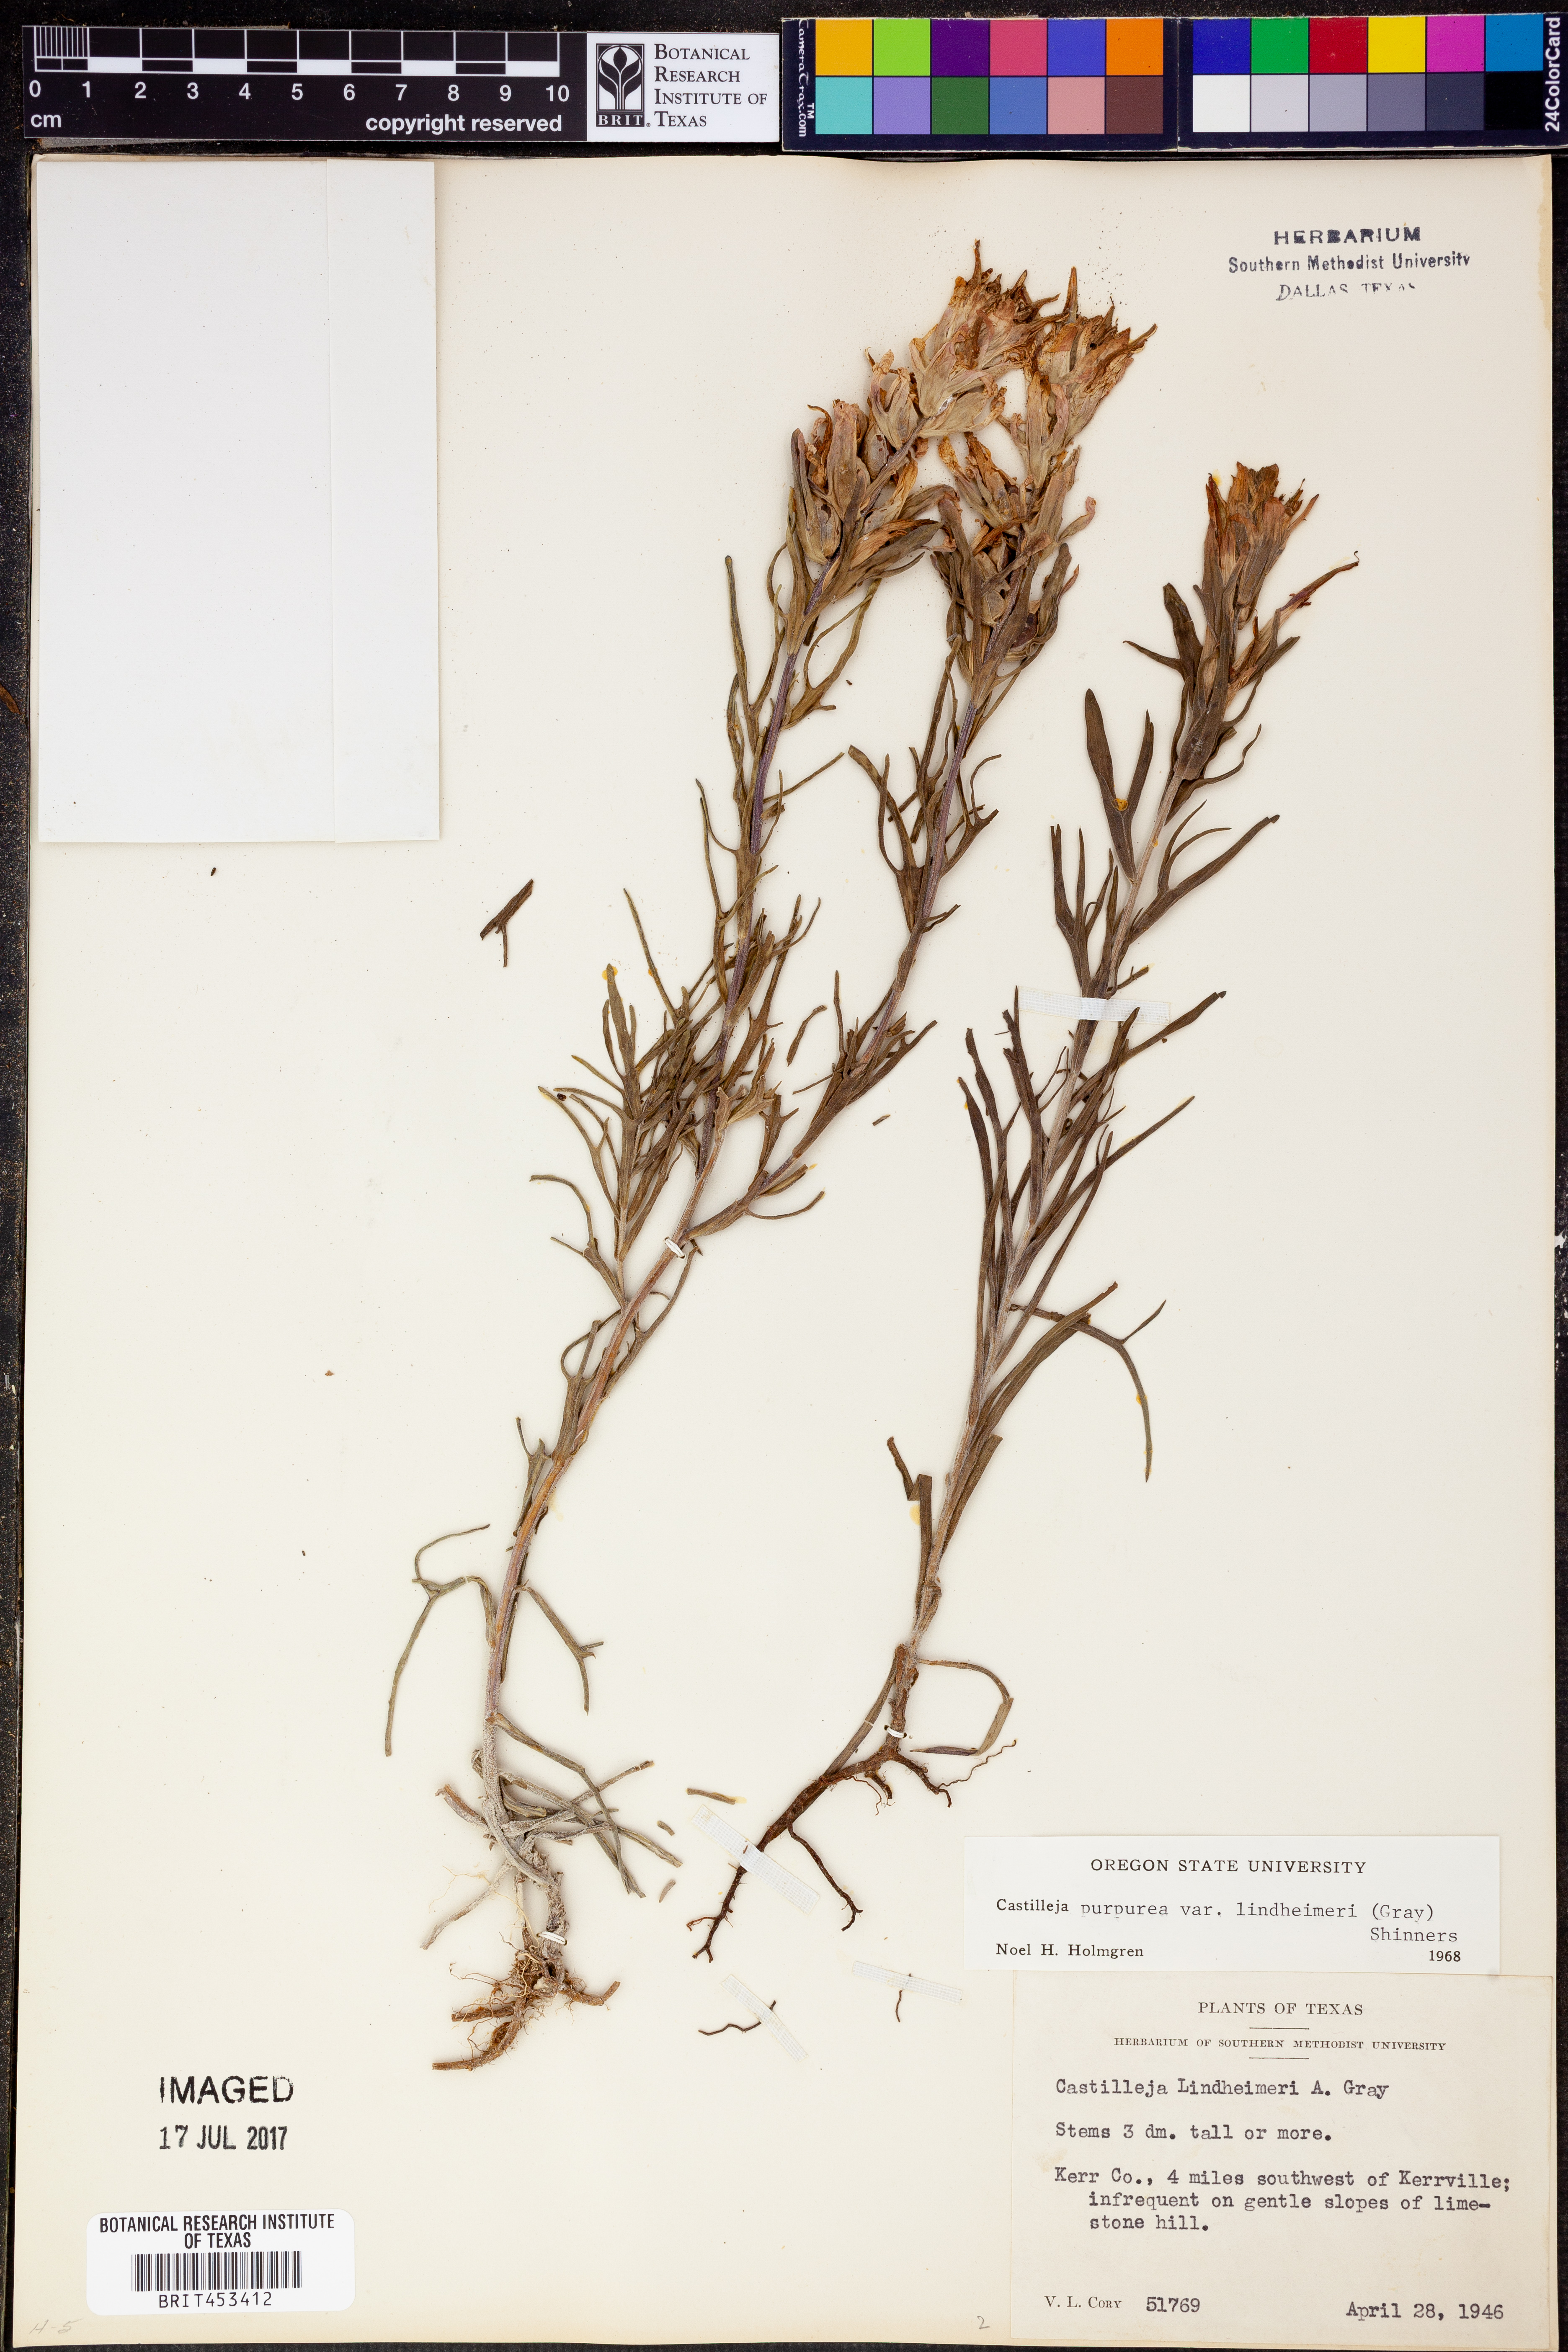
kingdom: Plantae
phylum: Tracheophyta
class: Magnoliopsida
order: Lamiales
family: Orobanchaceae
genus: Castilleja
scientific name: Castilleja lindheimeri
